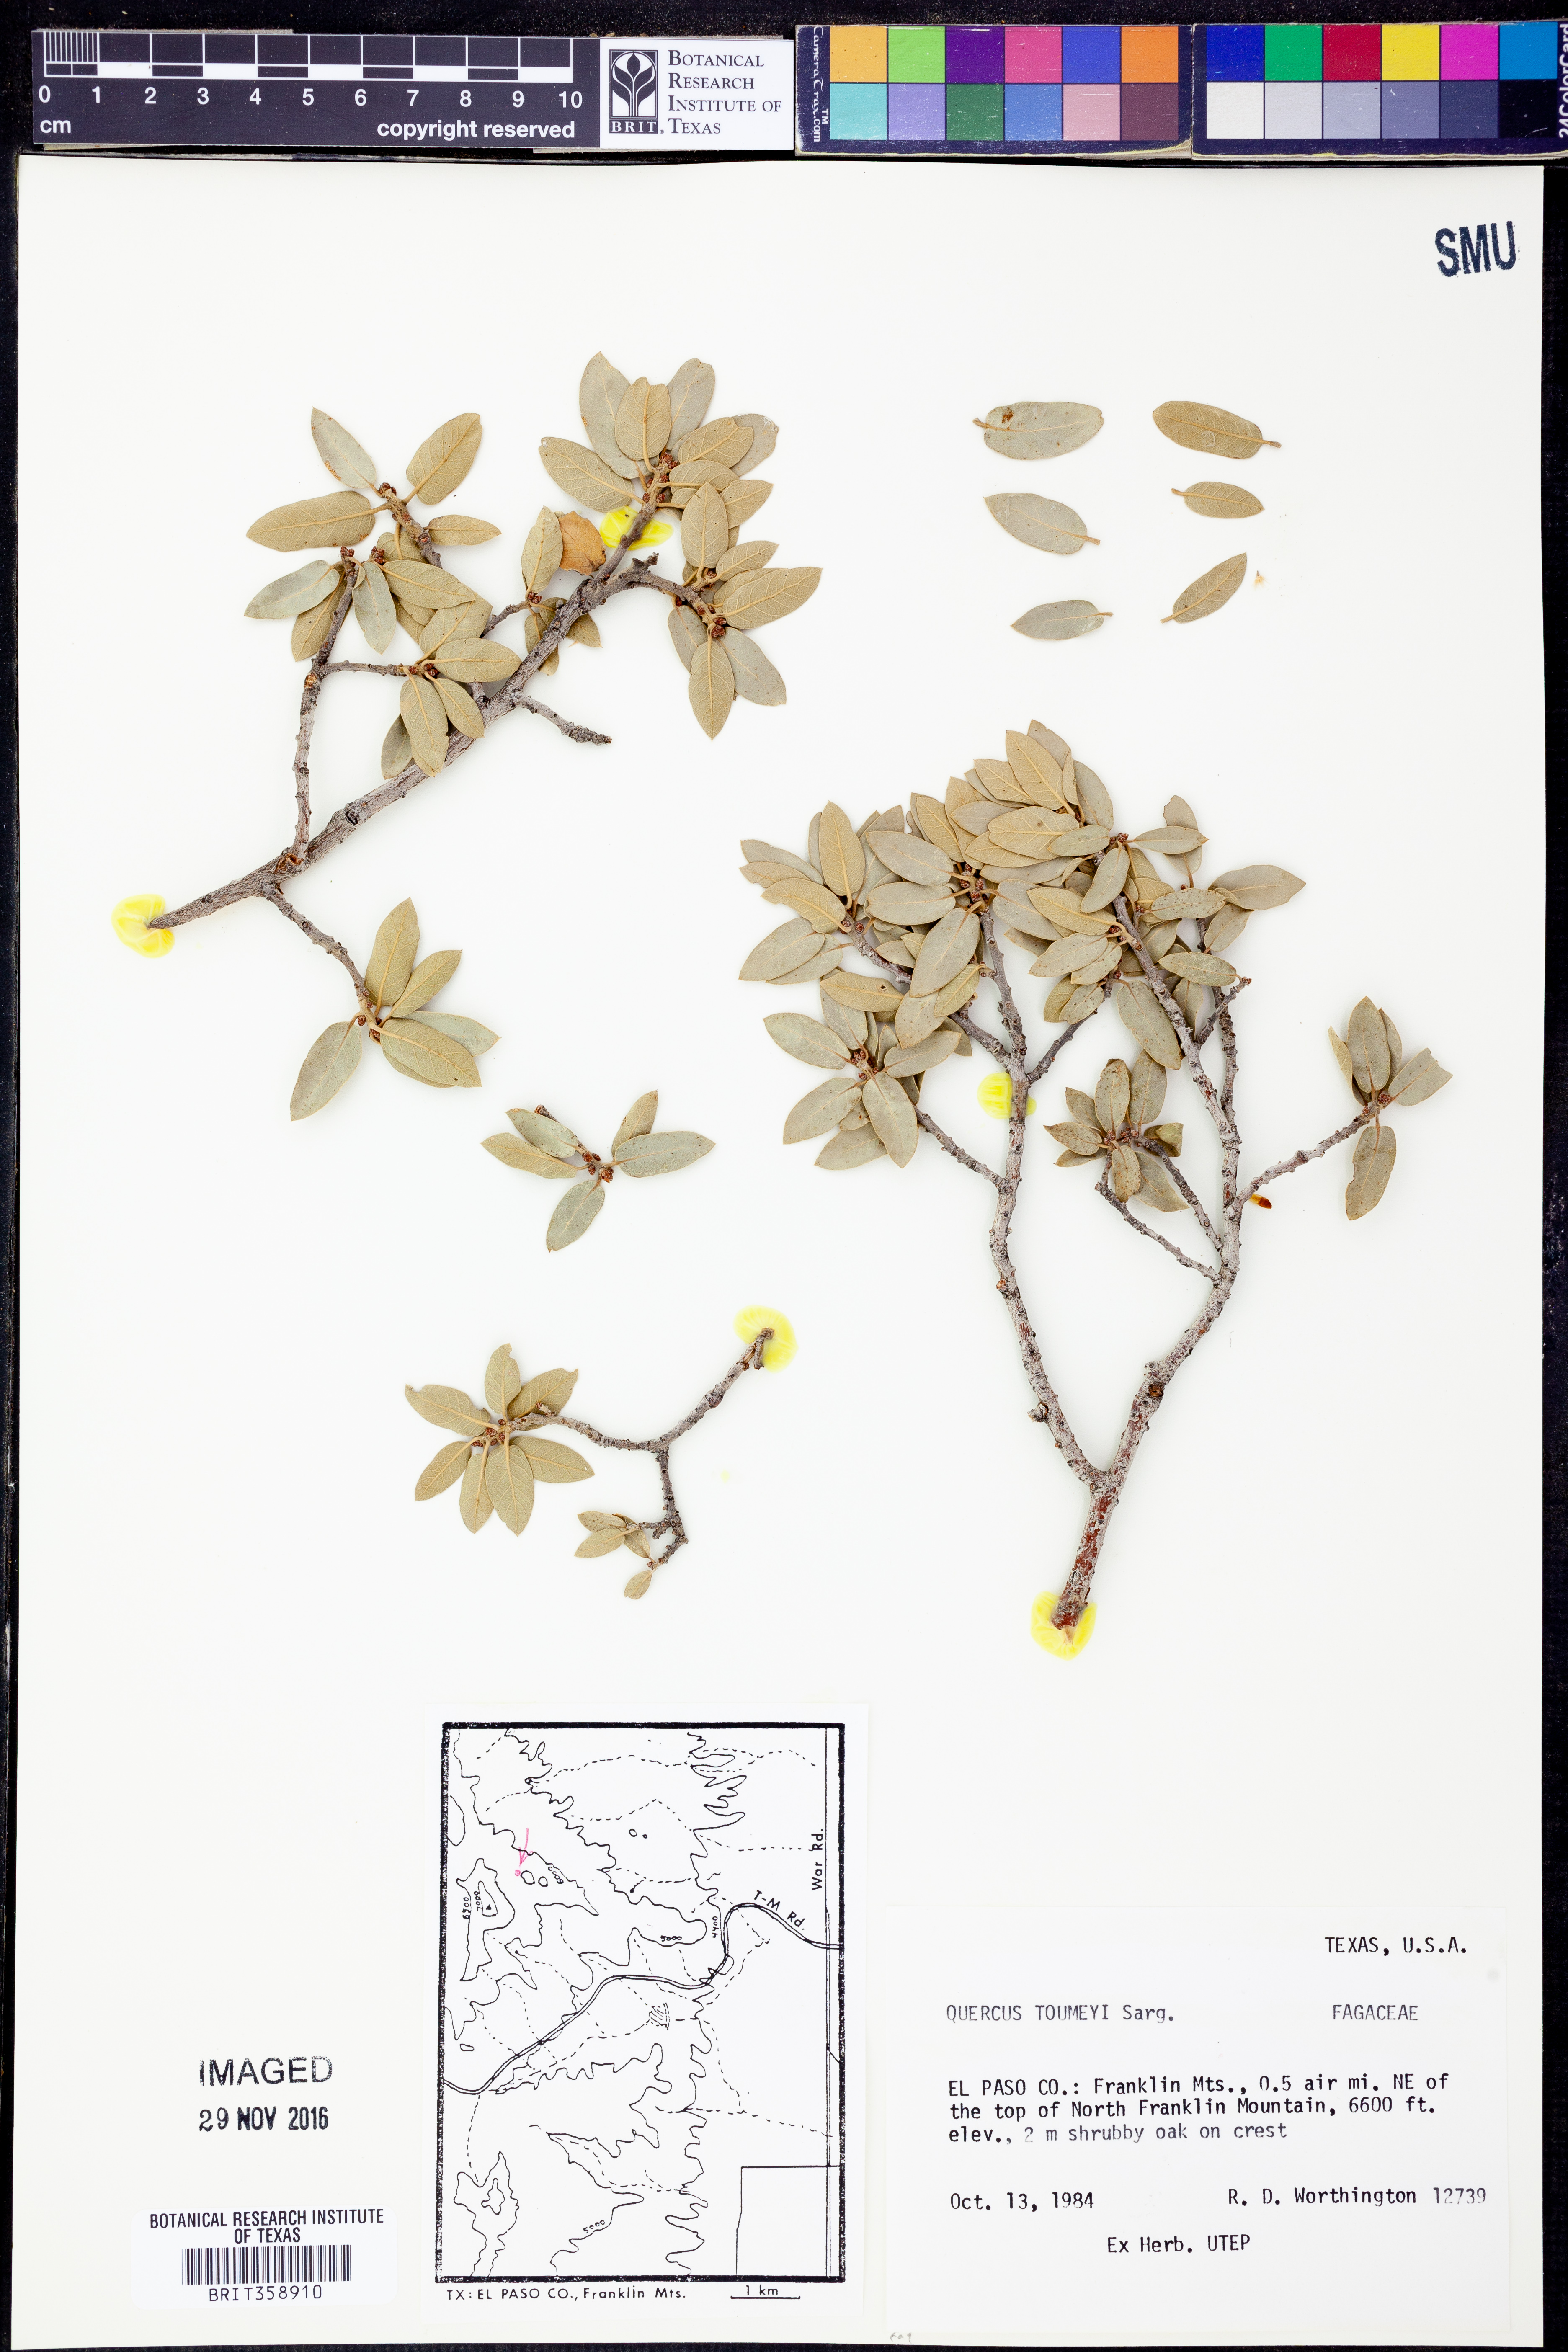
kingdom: Plantae
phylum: Tracheophyta
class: Magnoliopsida
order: Fagales
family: Fagaceae
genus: Quercus
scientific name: Quercus toumeyi
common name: Toumey oak
